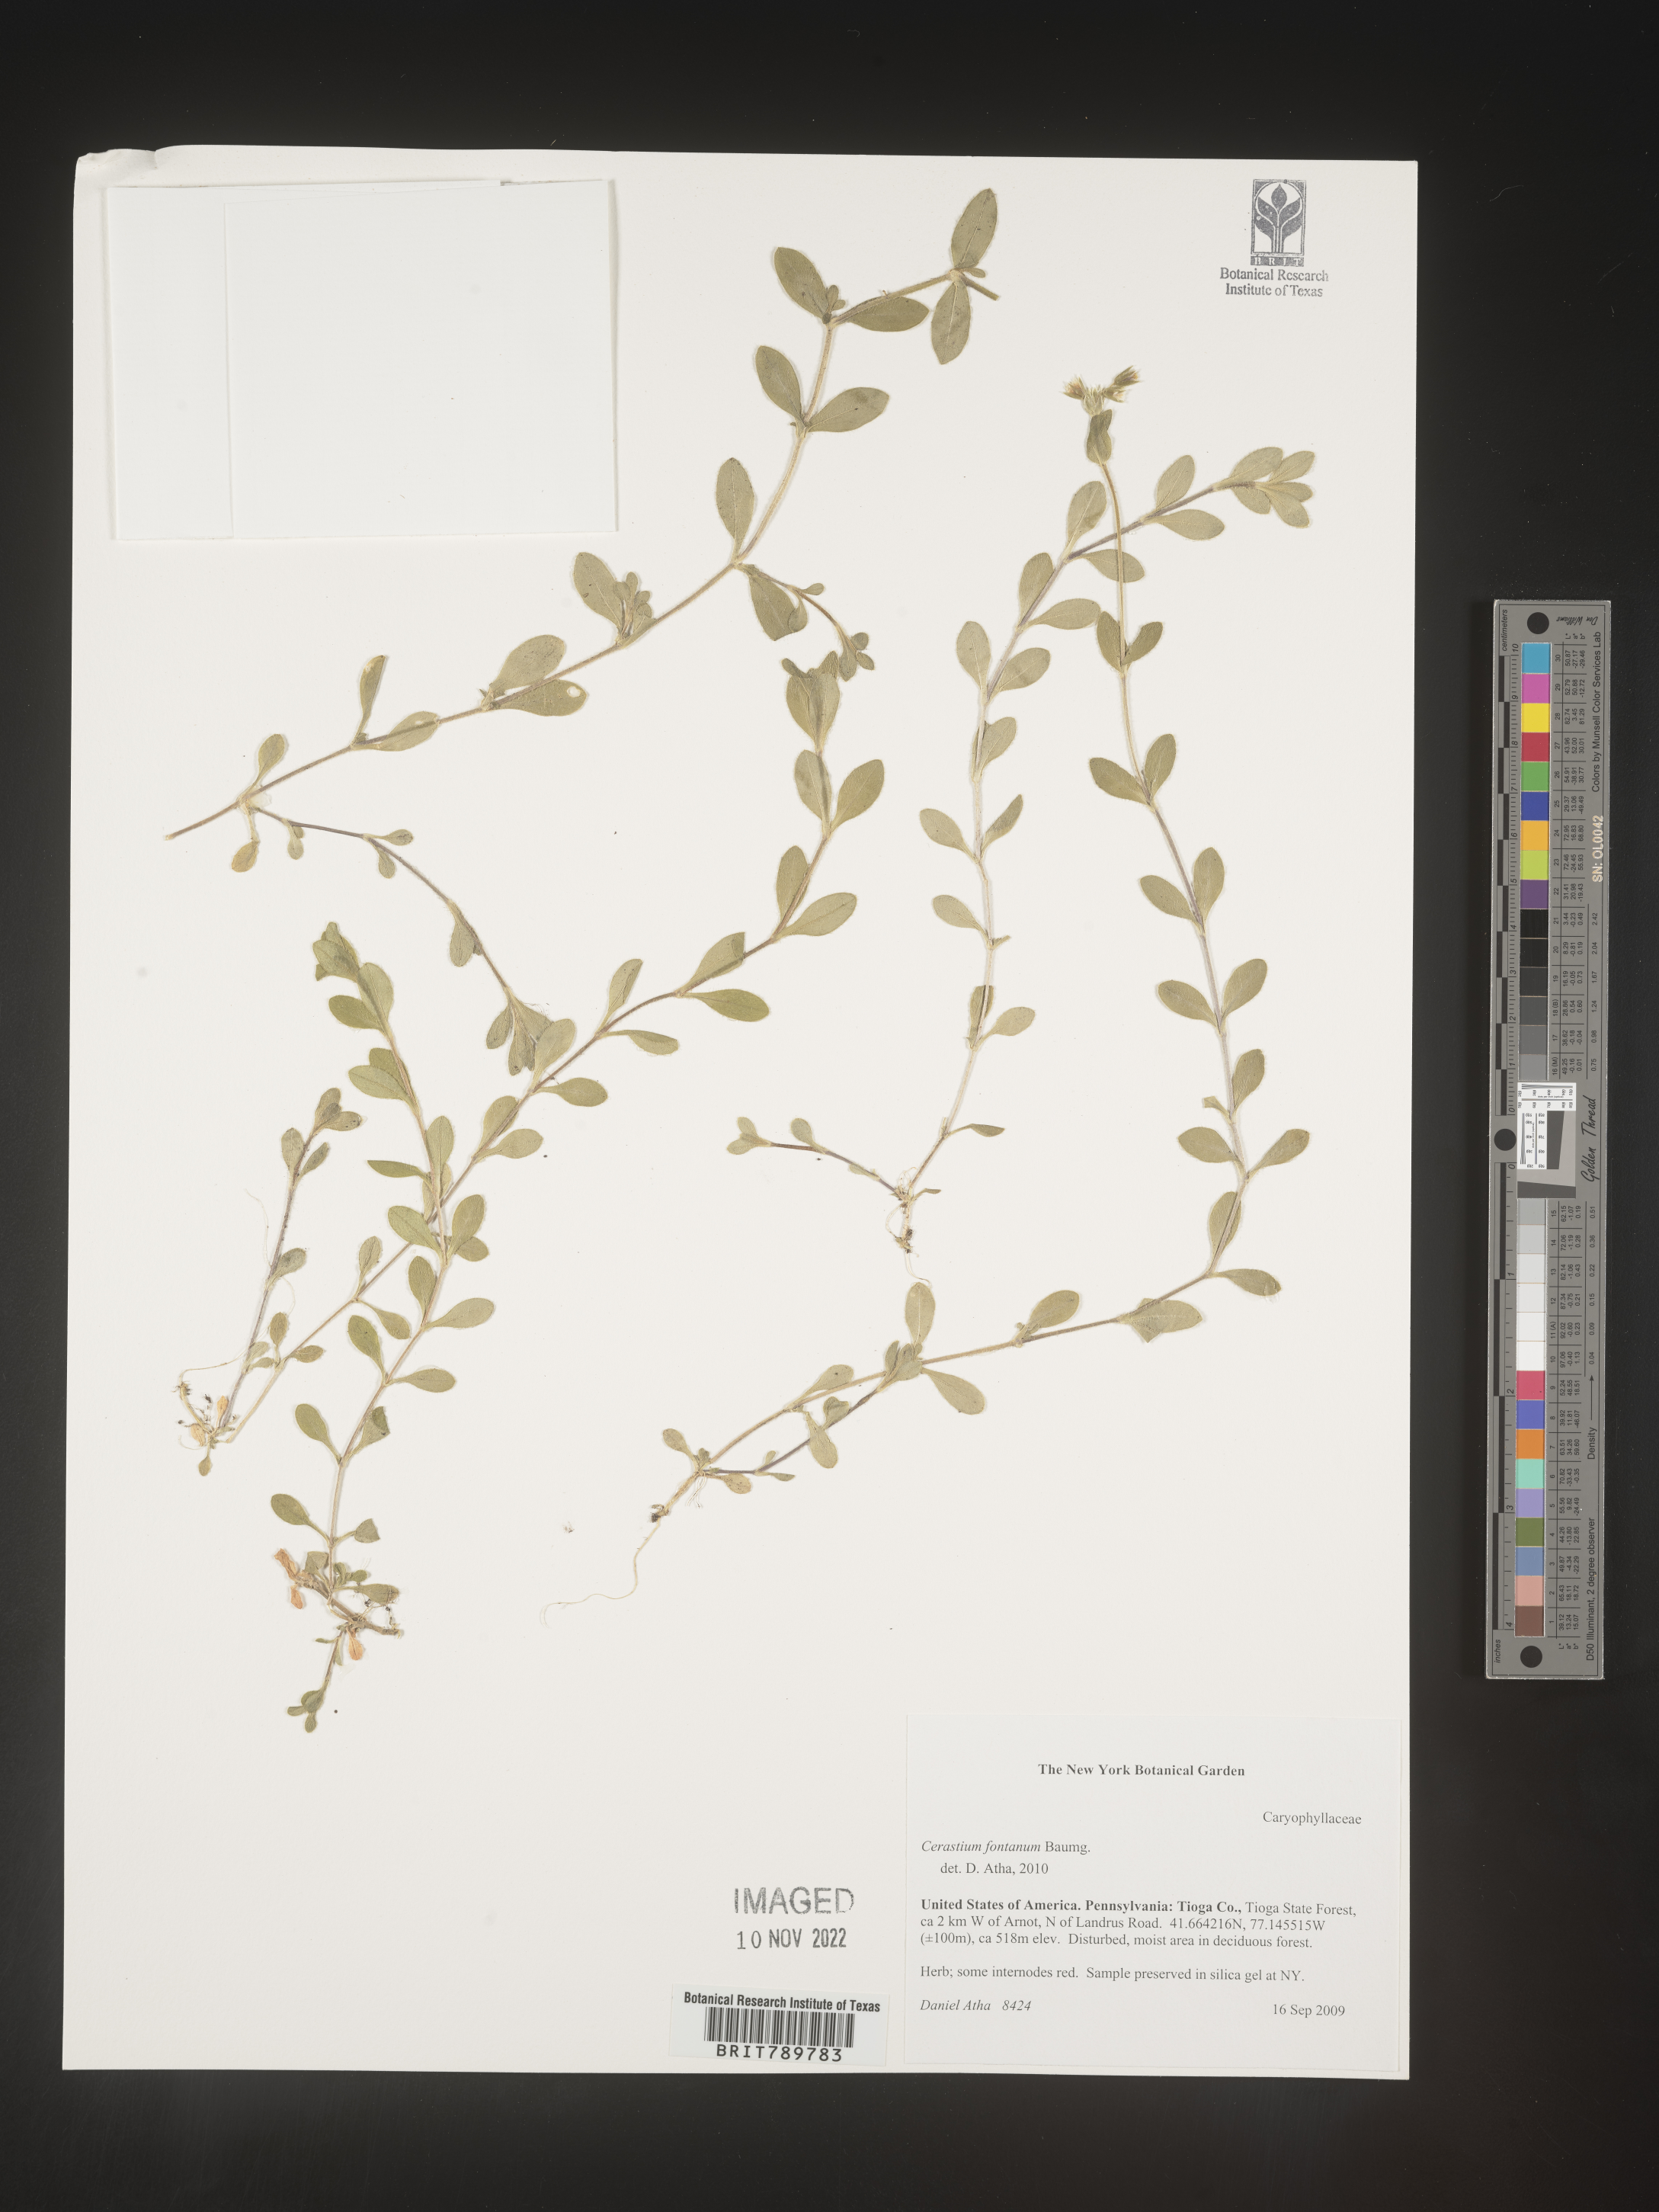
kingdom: Plantae
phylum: Tracheophyta
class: Magnoliopsida
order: Caryophyllales
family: Caryophyllaceae
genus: Cerastium
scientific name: Cerastium fontanum
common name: Common mouse-ear
